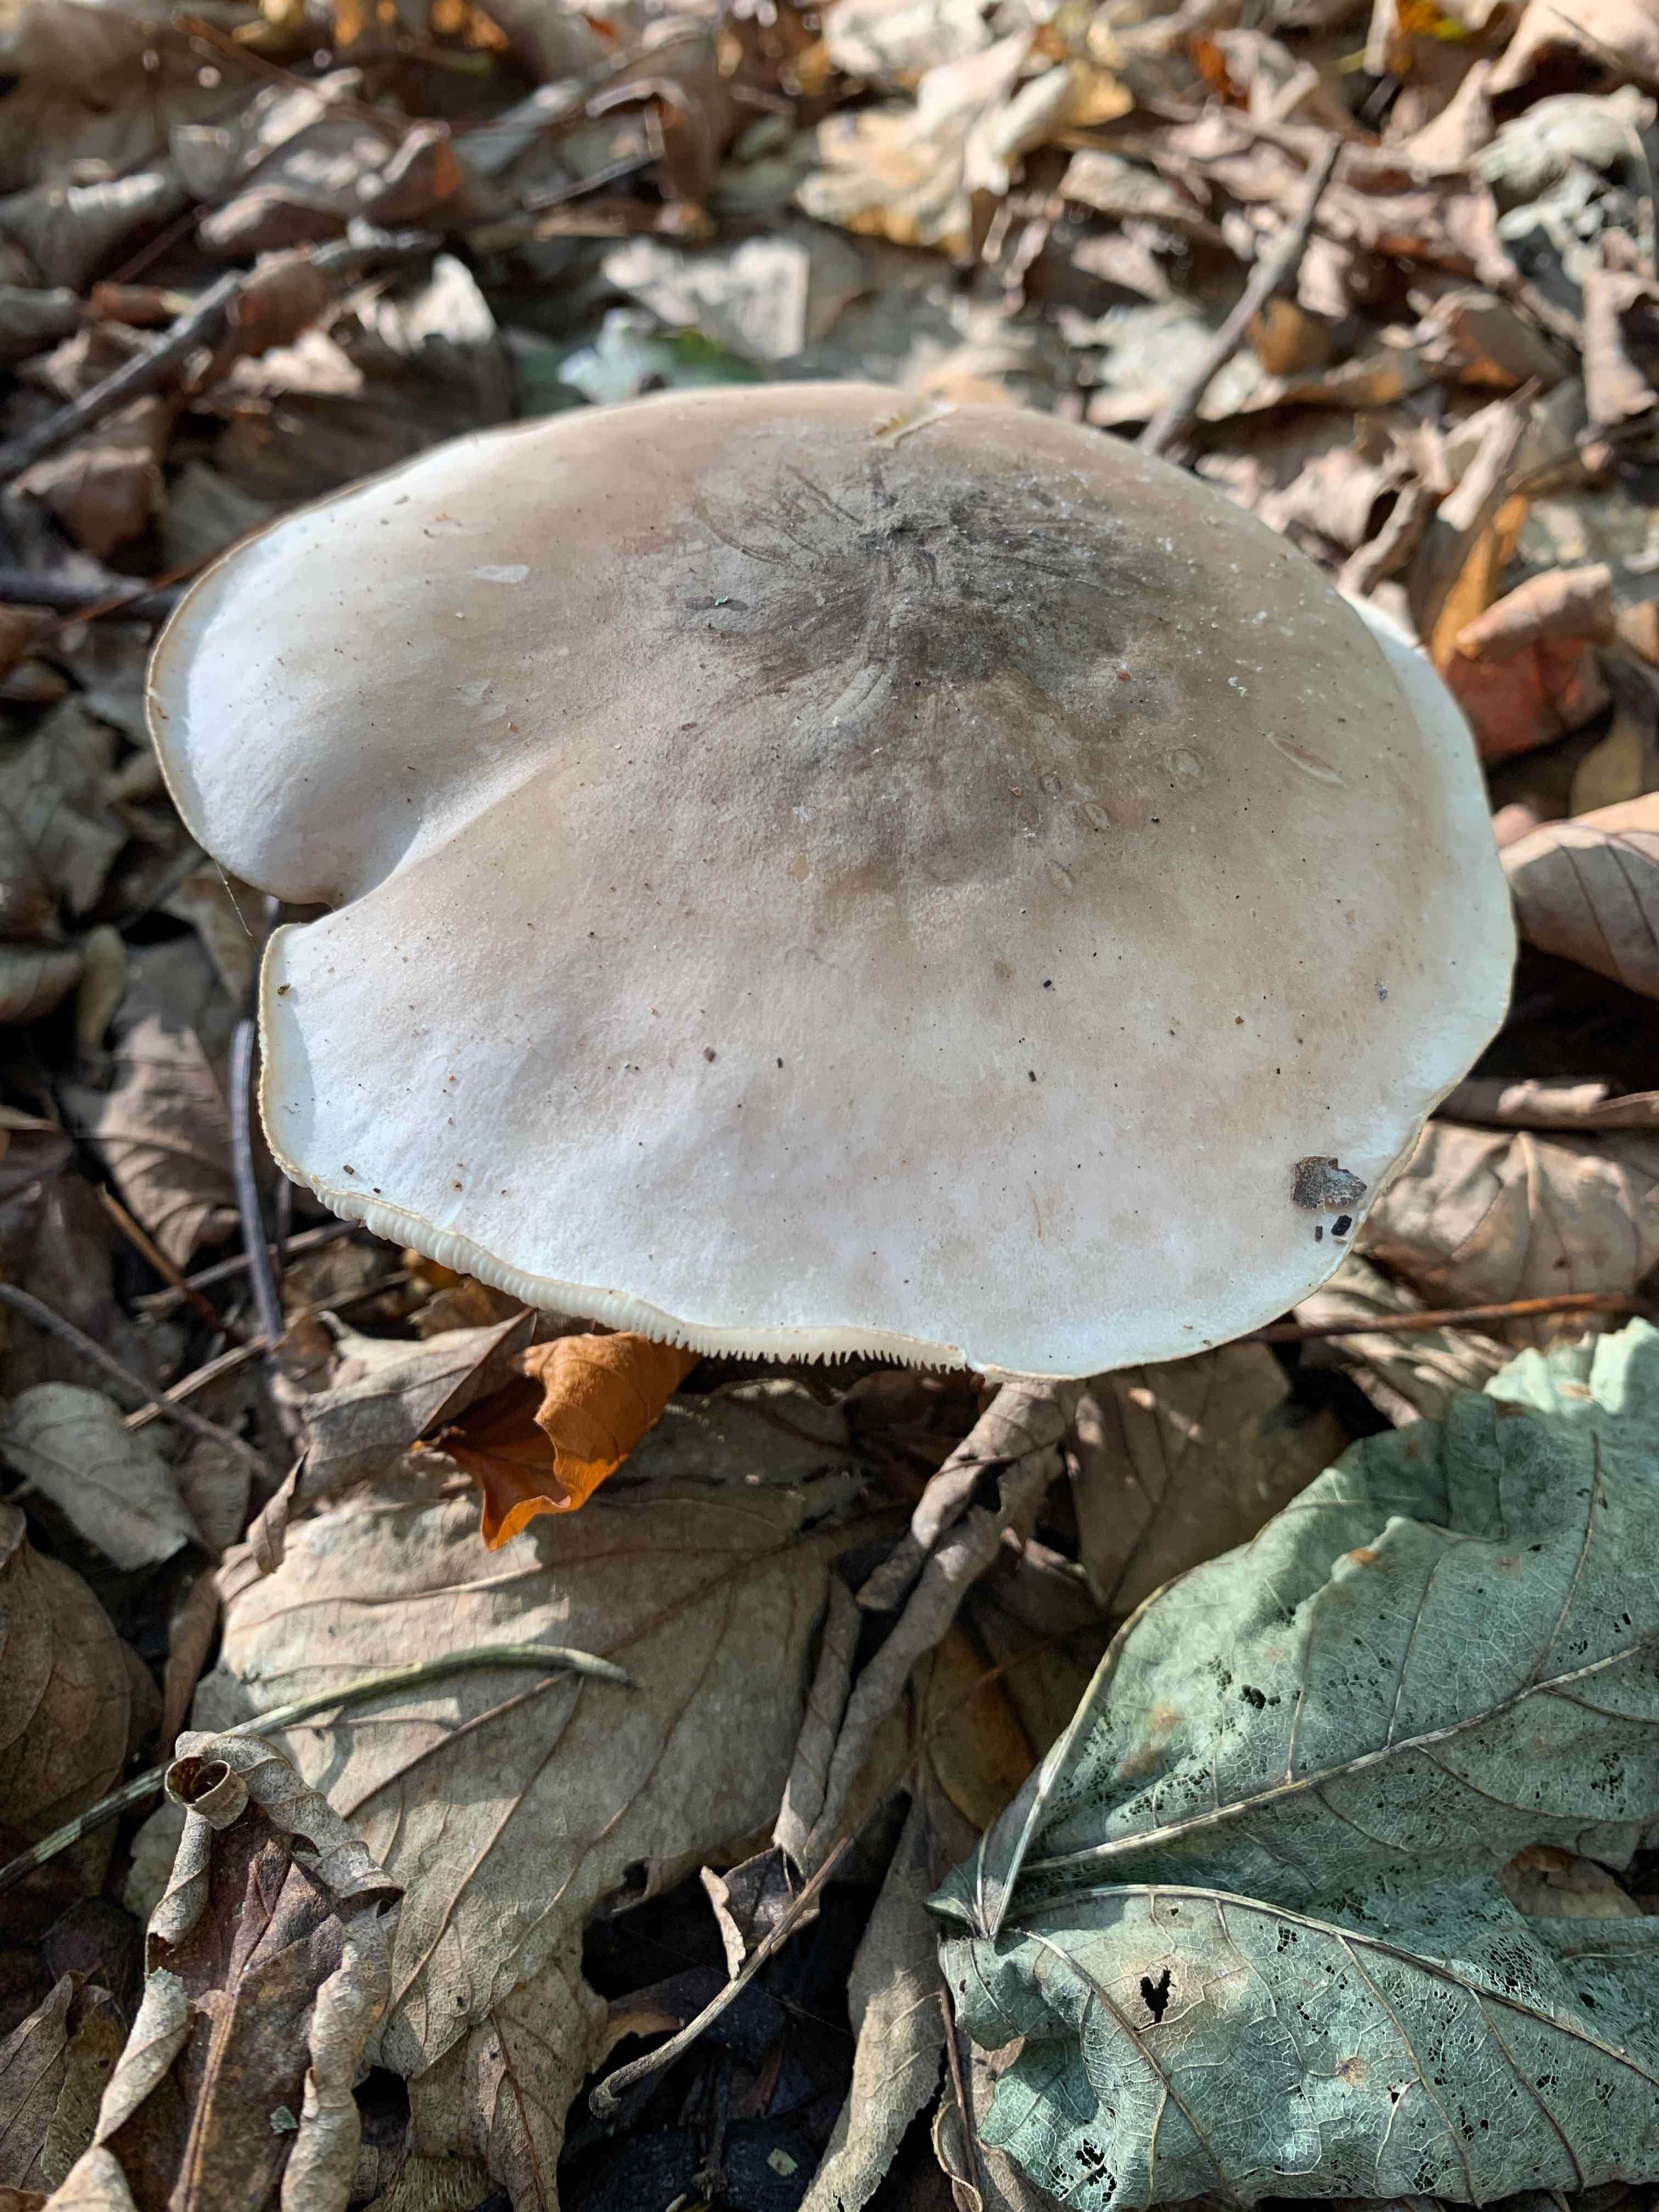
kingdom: Fungi
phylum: Basidiomycota
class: Agaricomycetes
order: Agaricales
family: Tricholomataceae
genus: Clitocybe
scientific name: Clitocybe nebularis
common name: tåge-tragthat
